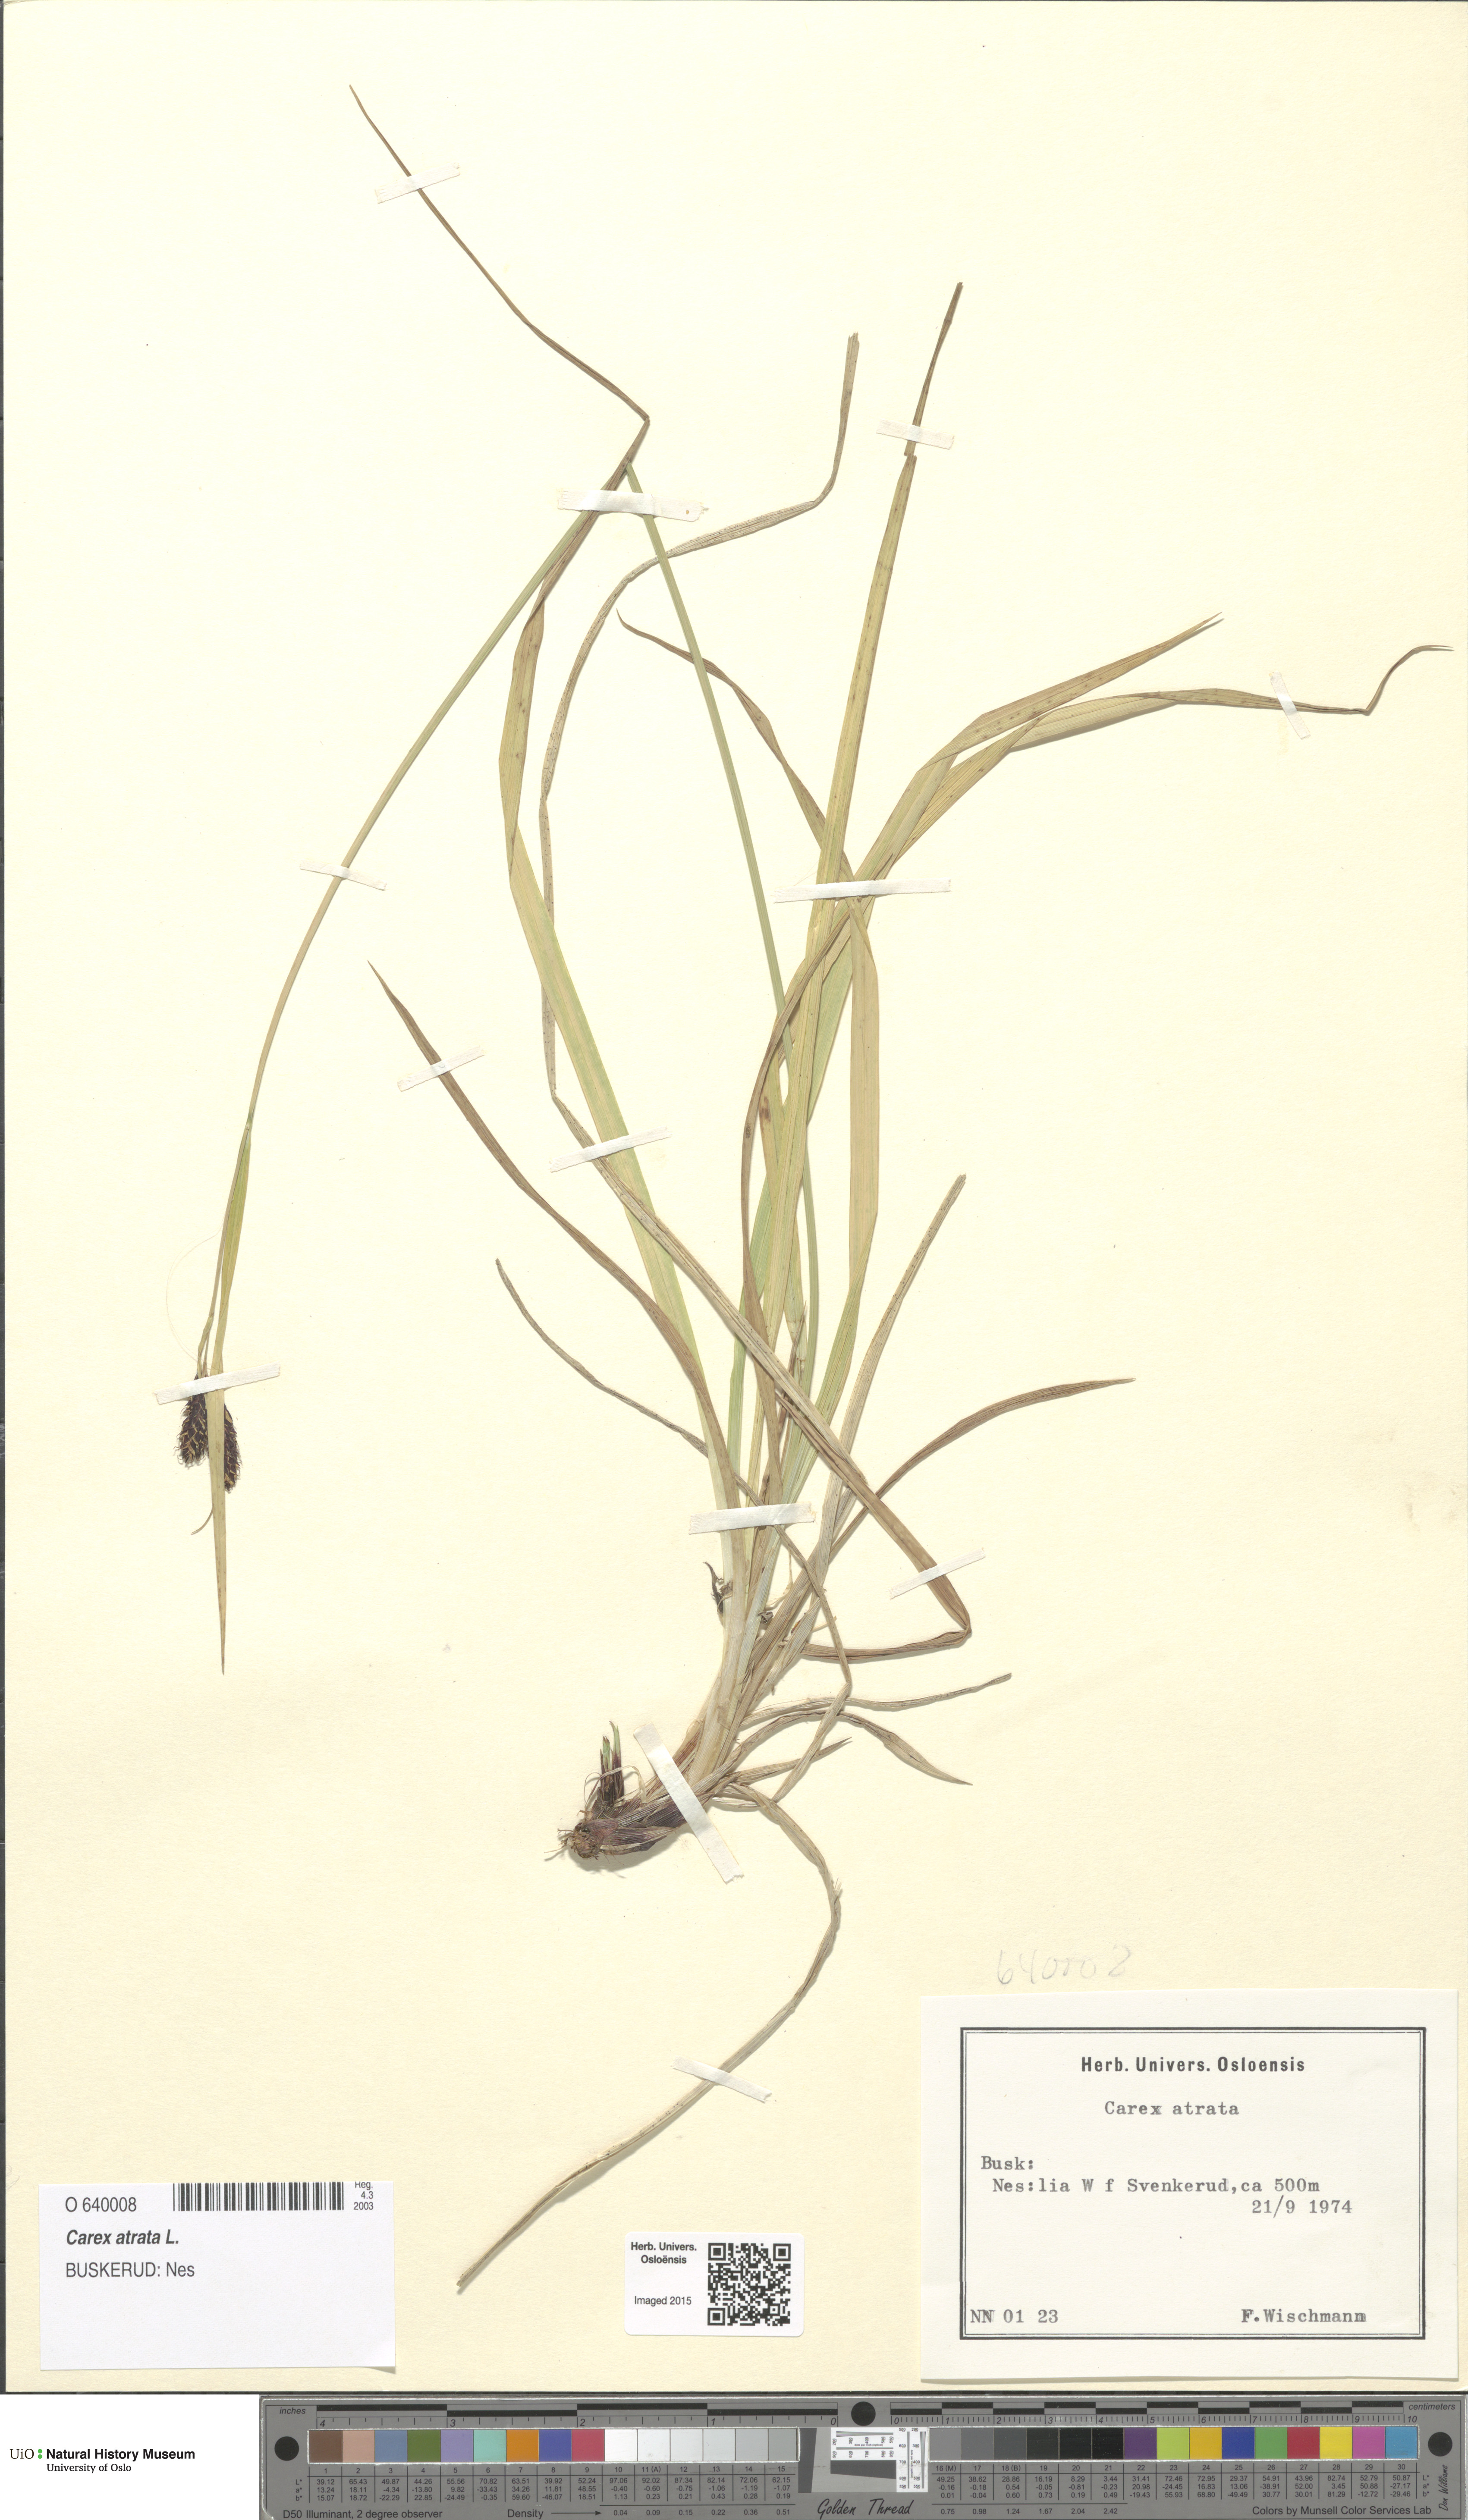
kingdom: Plantae
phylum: Tracheophyta
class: Liliopsida
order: Poales
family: Cyperaceae
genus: Carex
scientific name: Carex atrata
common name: Black alpine sedge
